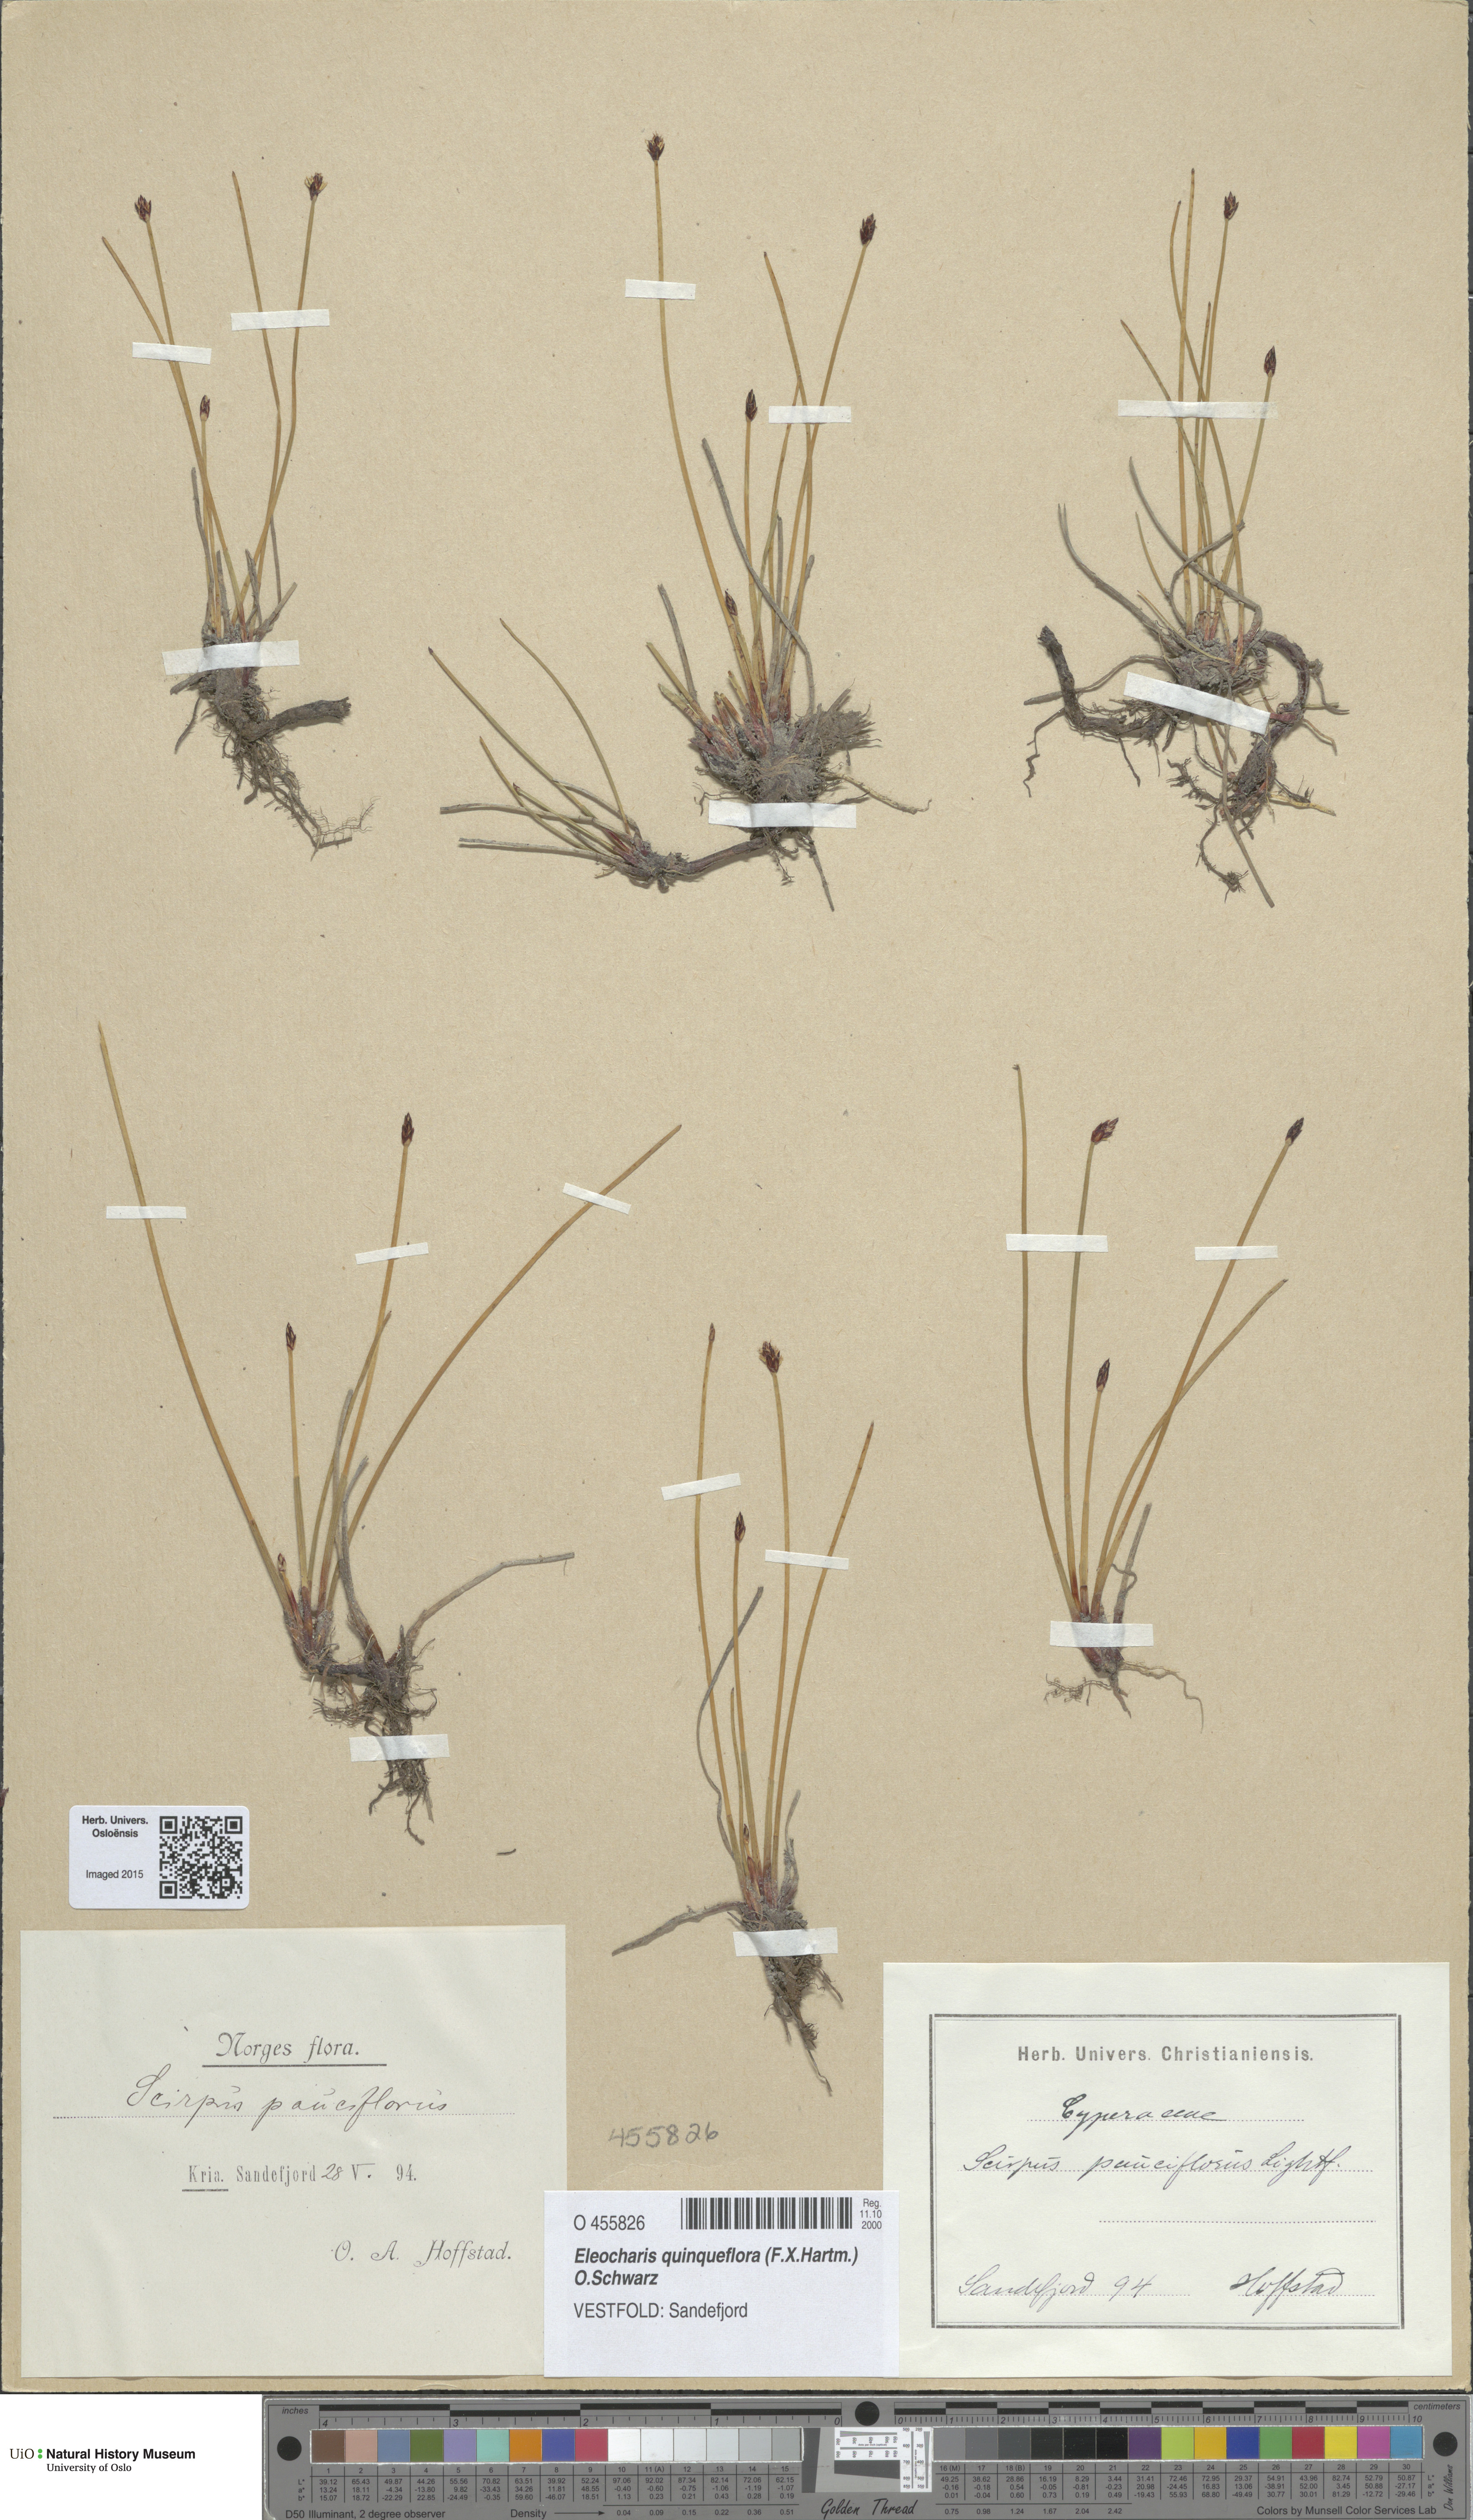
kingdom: Plantae
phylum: Tracheophyta
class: Liliopsida
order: Poales
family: Cyperaceae
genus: Eleocharis
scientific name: Eleocharis uniglumis
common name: Slender spike-rush
